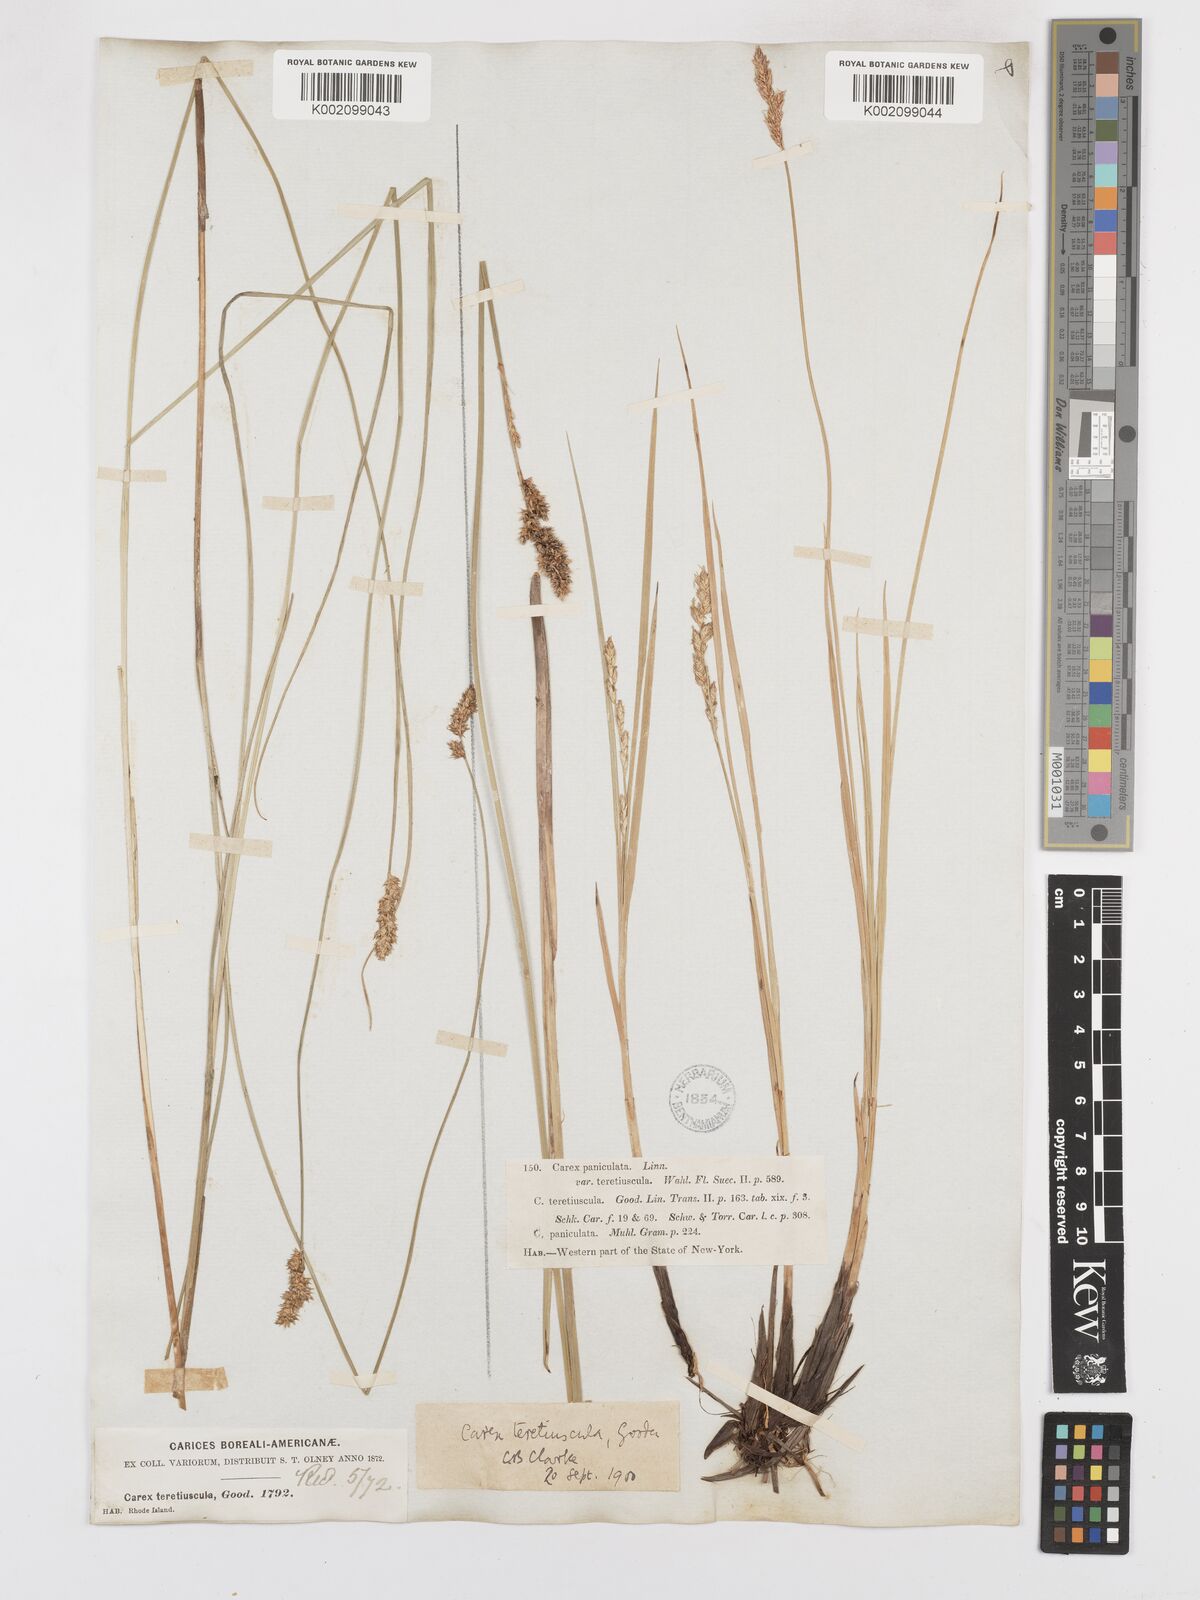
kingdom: Plantae
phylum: Tracheophyta
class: Liliopsida
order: Poales
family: Cyperaceae
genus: Carex
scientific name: Carex diandra
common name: Lesser tussock-sedge
